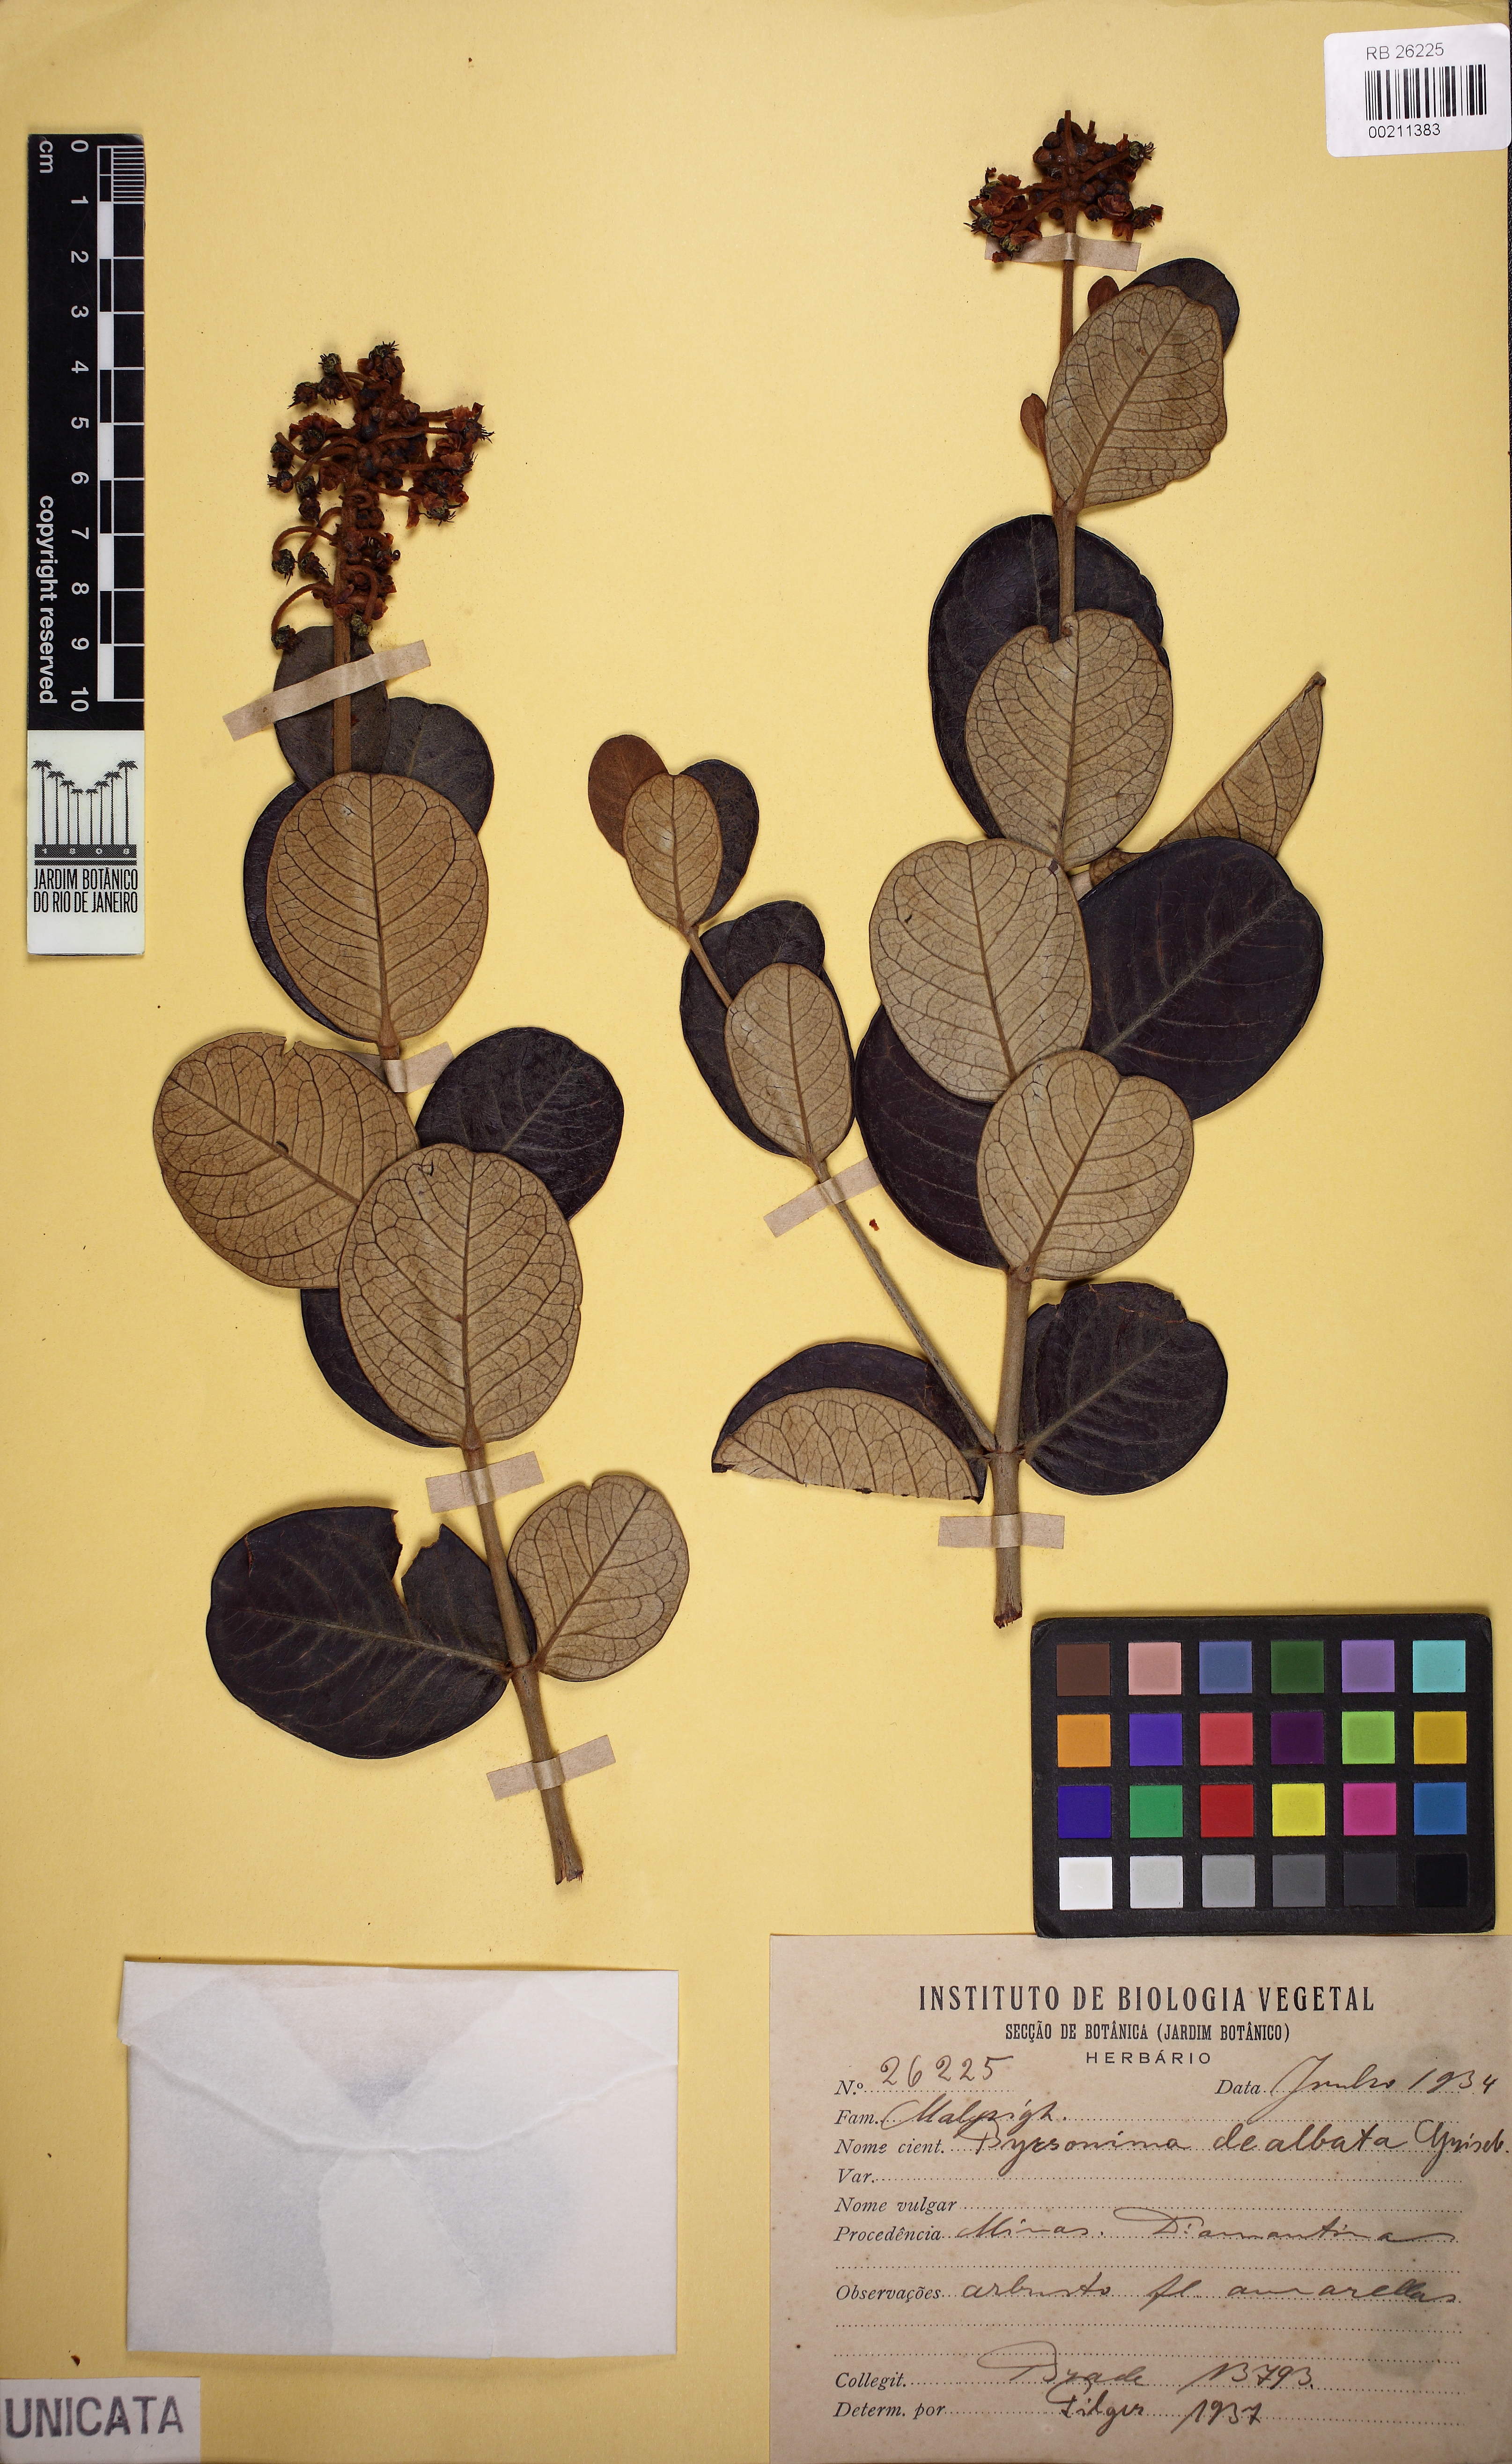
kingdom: Plantae
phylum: Tracheophyta
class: Magnoliopsida
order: Malpighiales
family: Malpighiaceae
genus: Byrsonima
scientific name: Byrsonima dealbata
